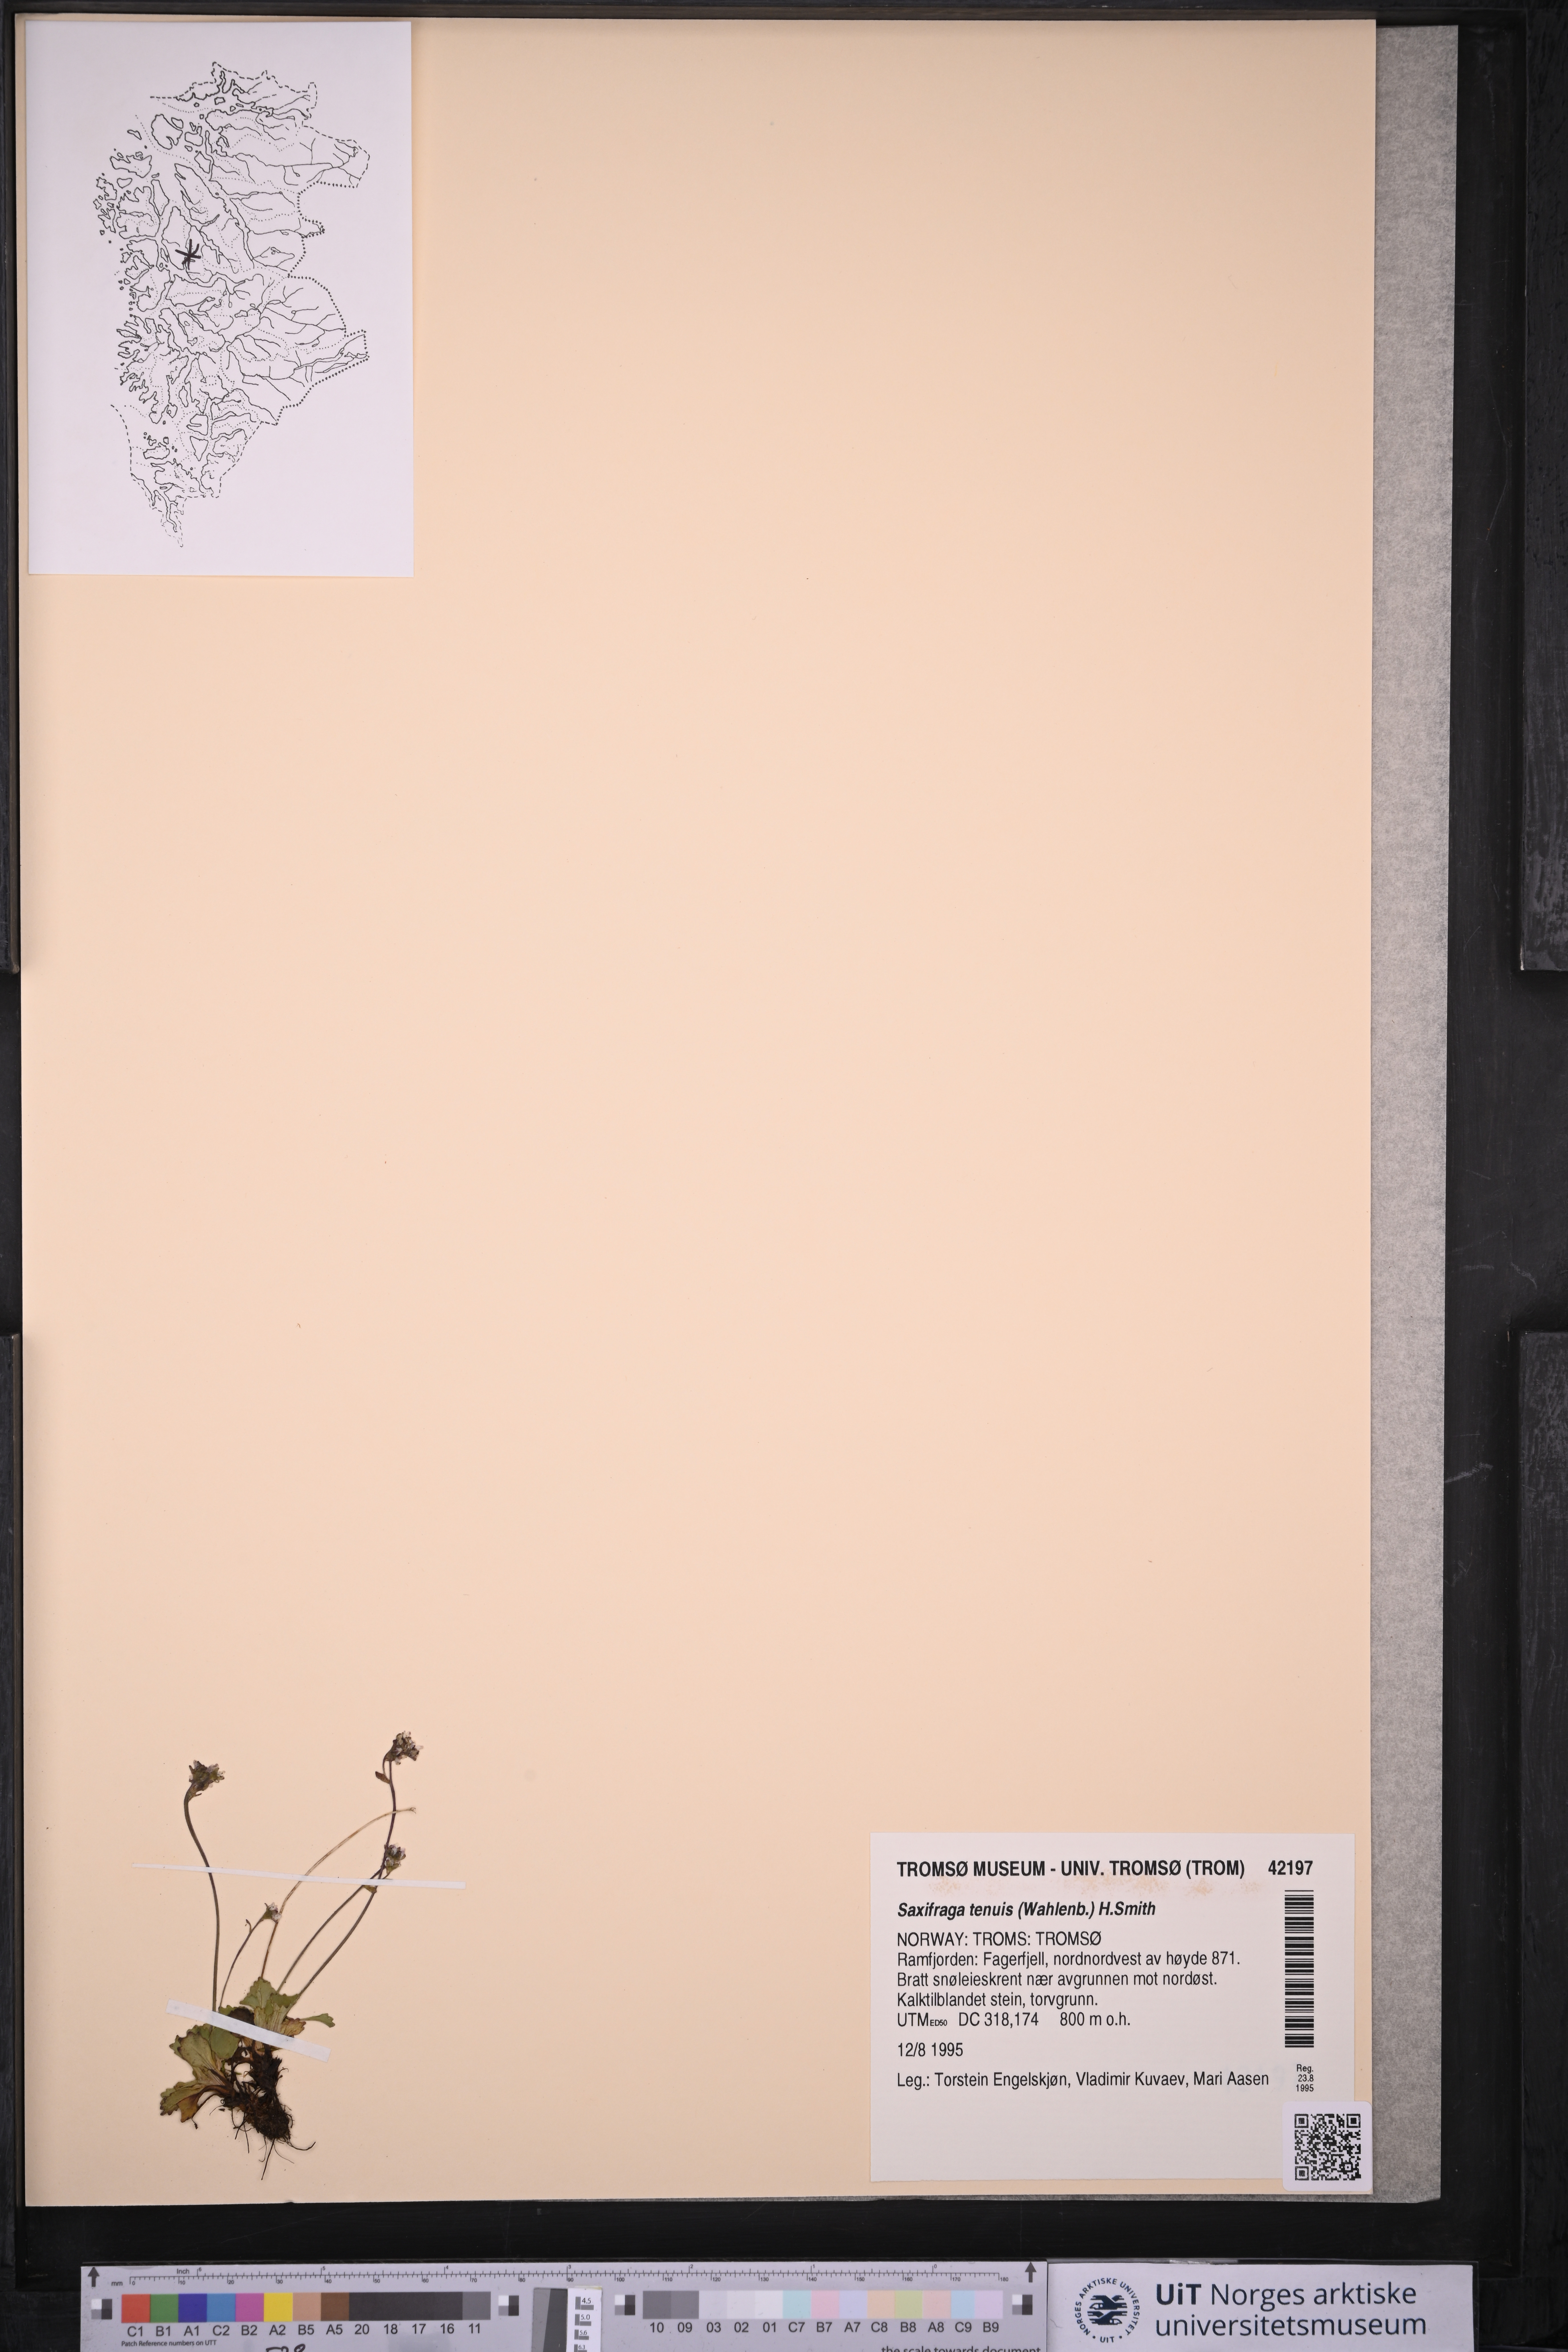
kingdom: Plantae
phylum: Tracheophyta
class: Magnoliopsida
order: Saxifragales
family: Saxifragaceae
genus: Micranthes
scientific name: Micranthes tenuis
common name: Ottertail pass saxifrage
